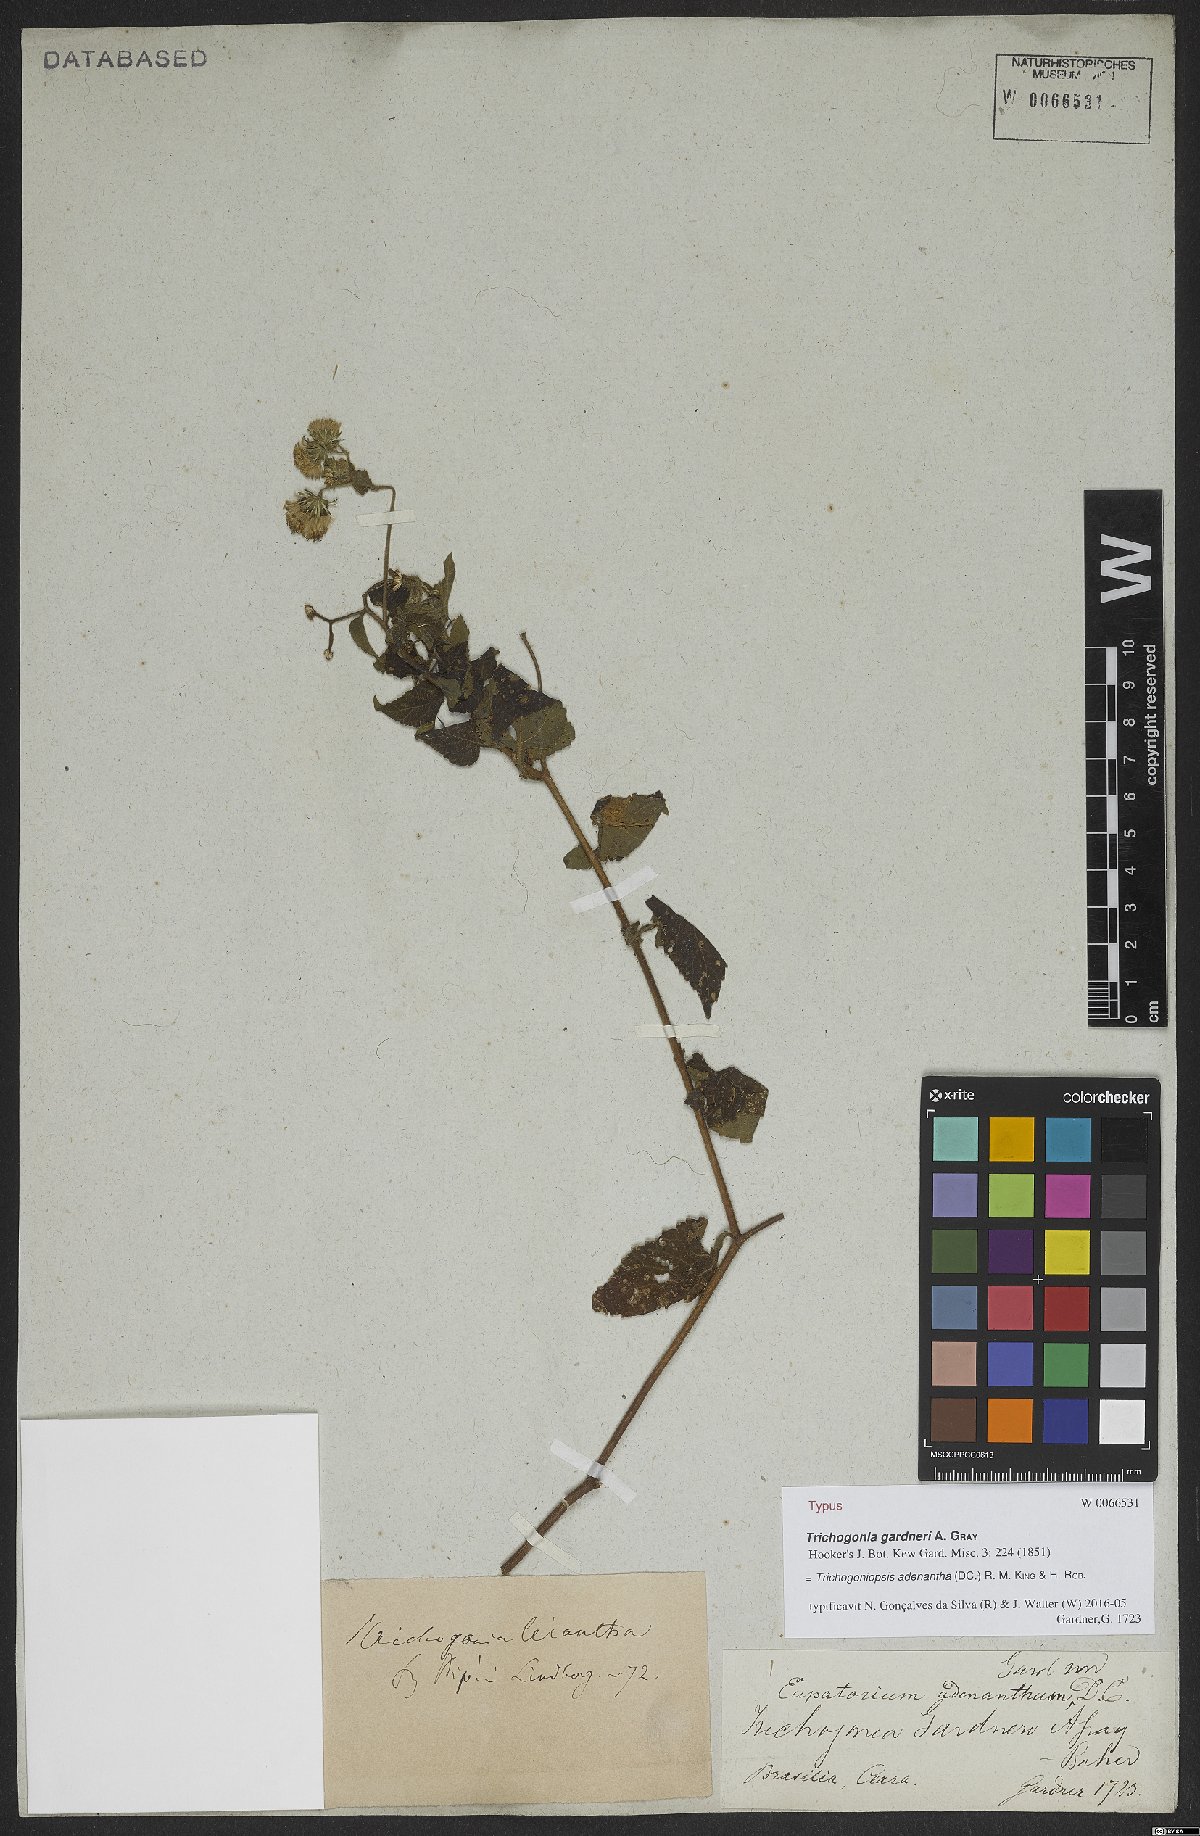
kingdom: Plantae
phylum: Tracheophyta
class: Magnoliopsida
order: Asterales
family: Asteraceae
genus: Trichogoniopsis
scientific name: Trichogoniopsis adenantha
